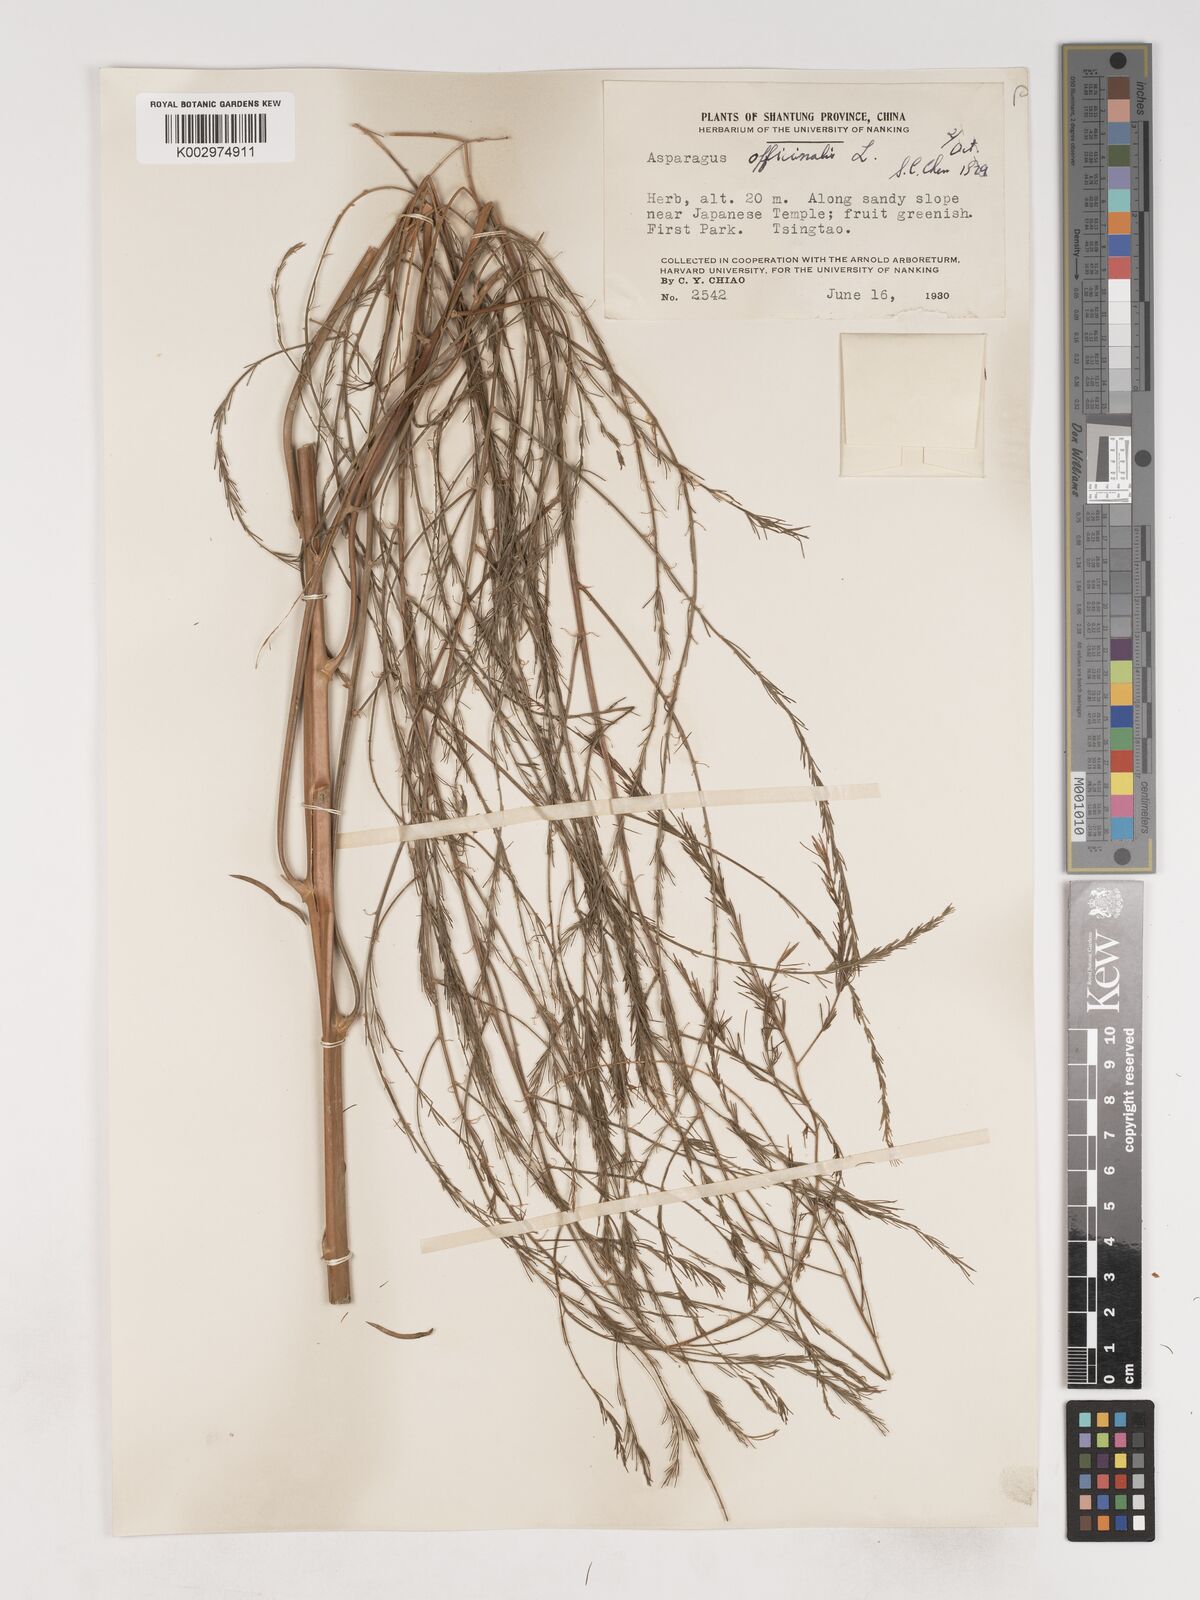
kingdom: Plantae
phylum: Tracheophyta
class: Liliopsida
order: Asparagales
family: Asparagaceae
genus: Asparagus
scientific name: Asparagus
